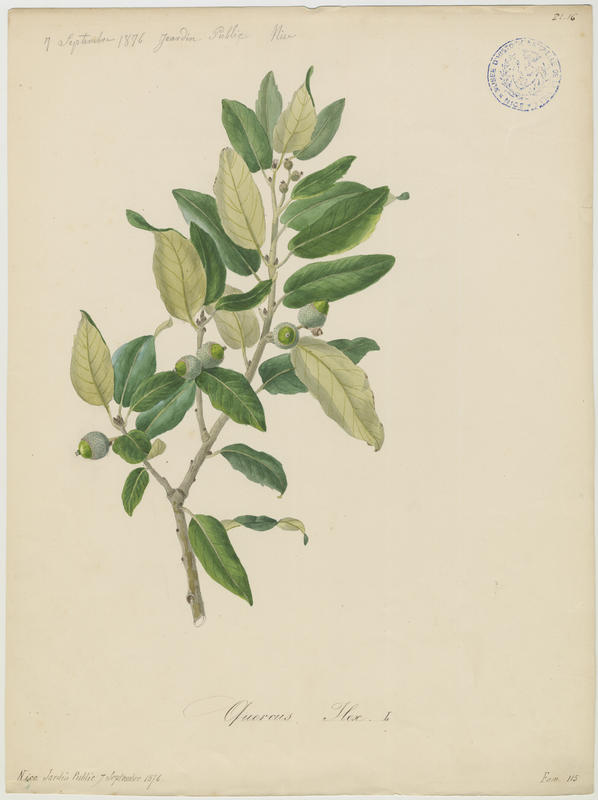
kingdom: Plantae
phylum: Tracheophyta
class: Magnoliopsida
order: Fagales
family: Fagaceae
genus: Quercus
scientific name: Quercus ilex
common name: Evergreen oak
